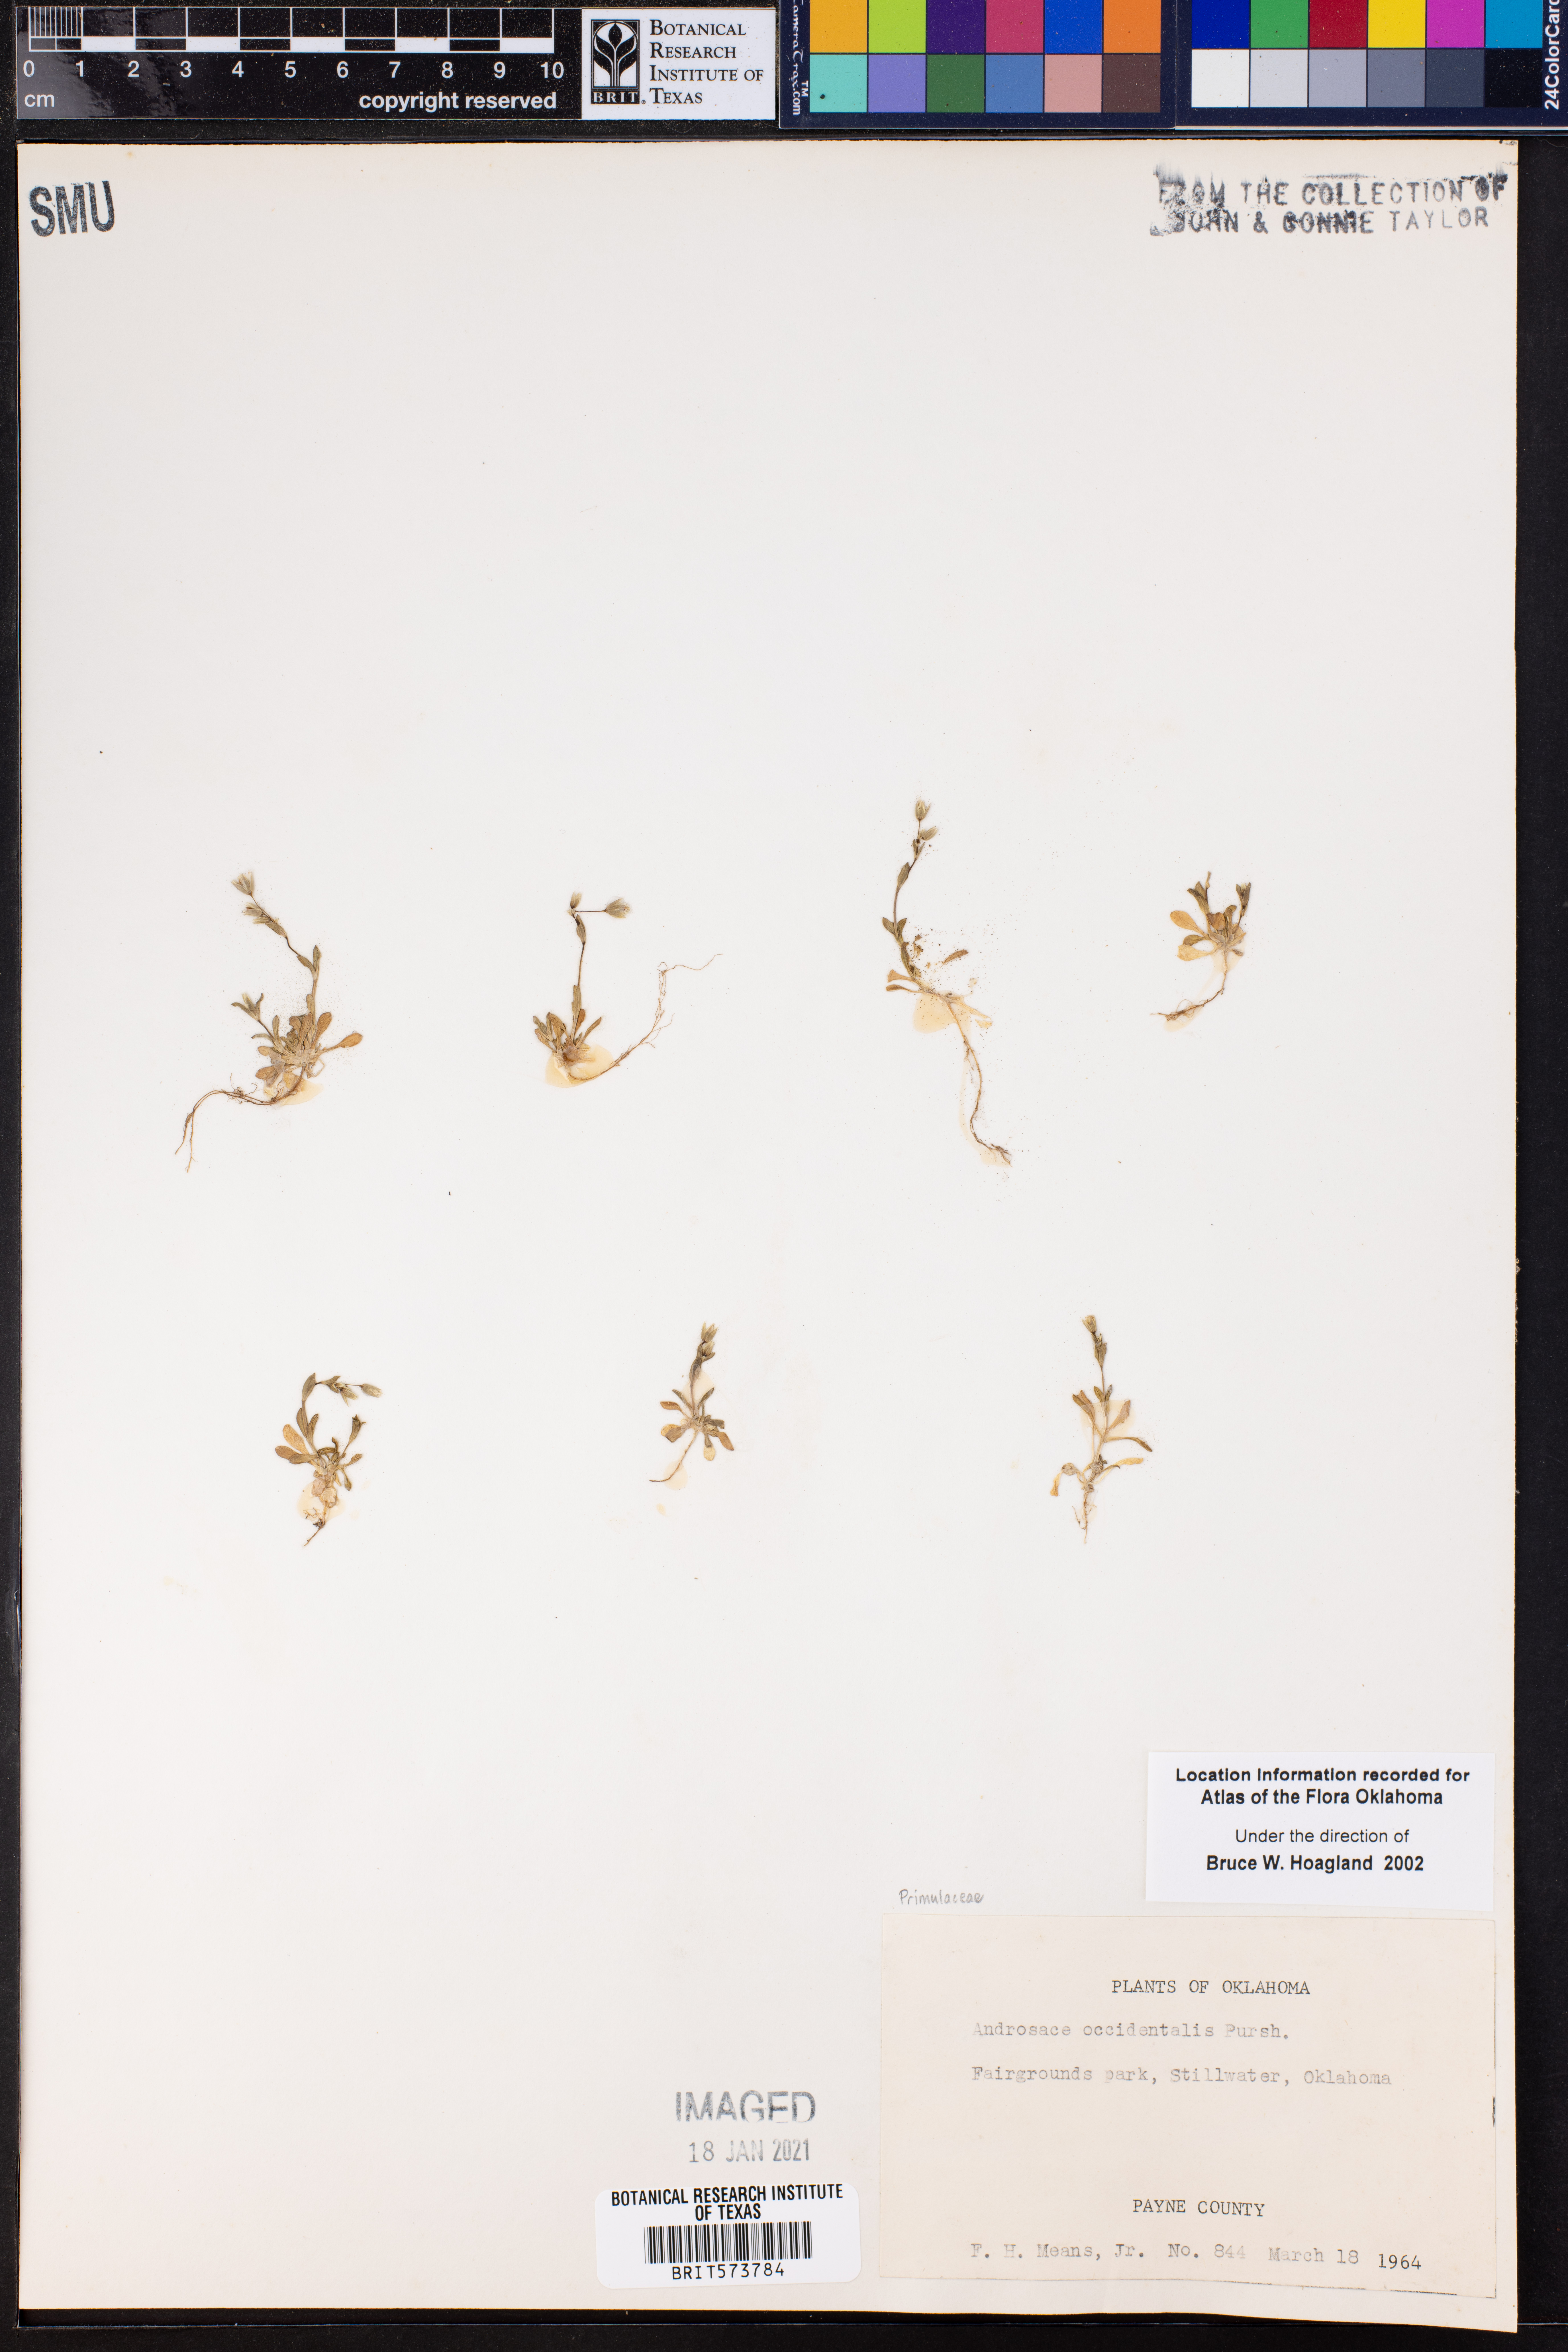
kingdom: Plantae
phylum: Tracheophyta
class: Magnoliopsida
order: Ericales
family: Primulaceae
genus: Androsace
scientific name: Androsace occidentalis
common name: West rock-jasmine
